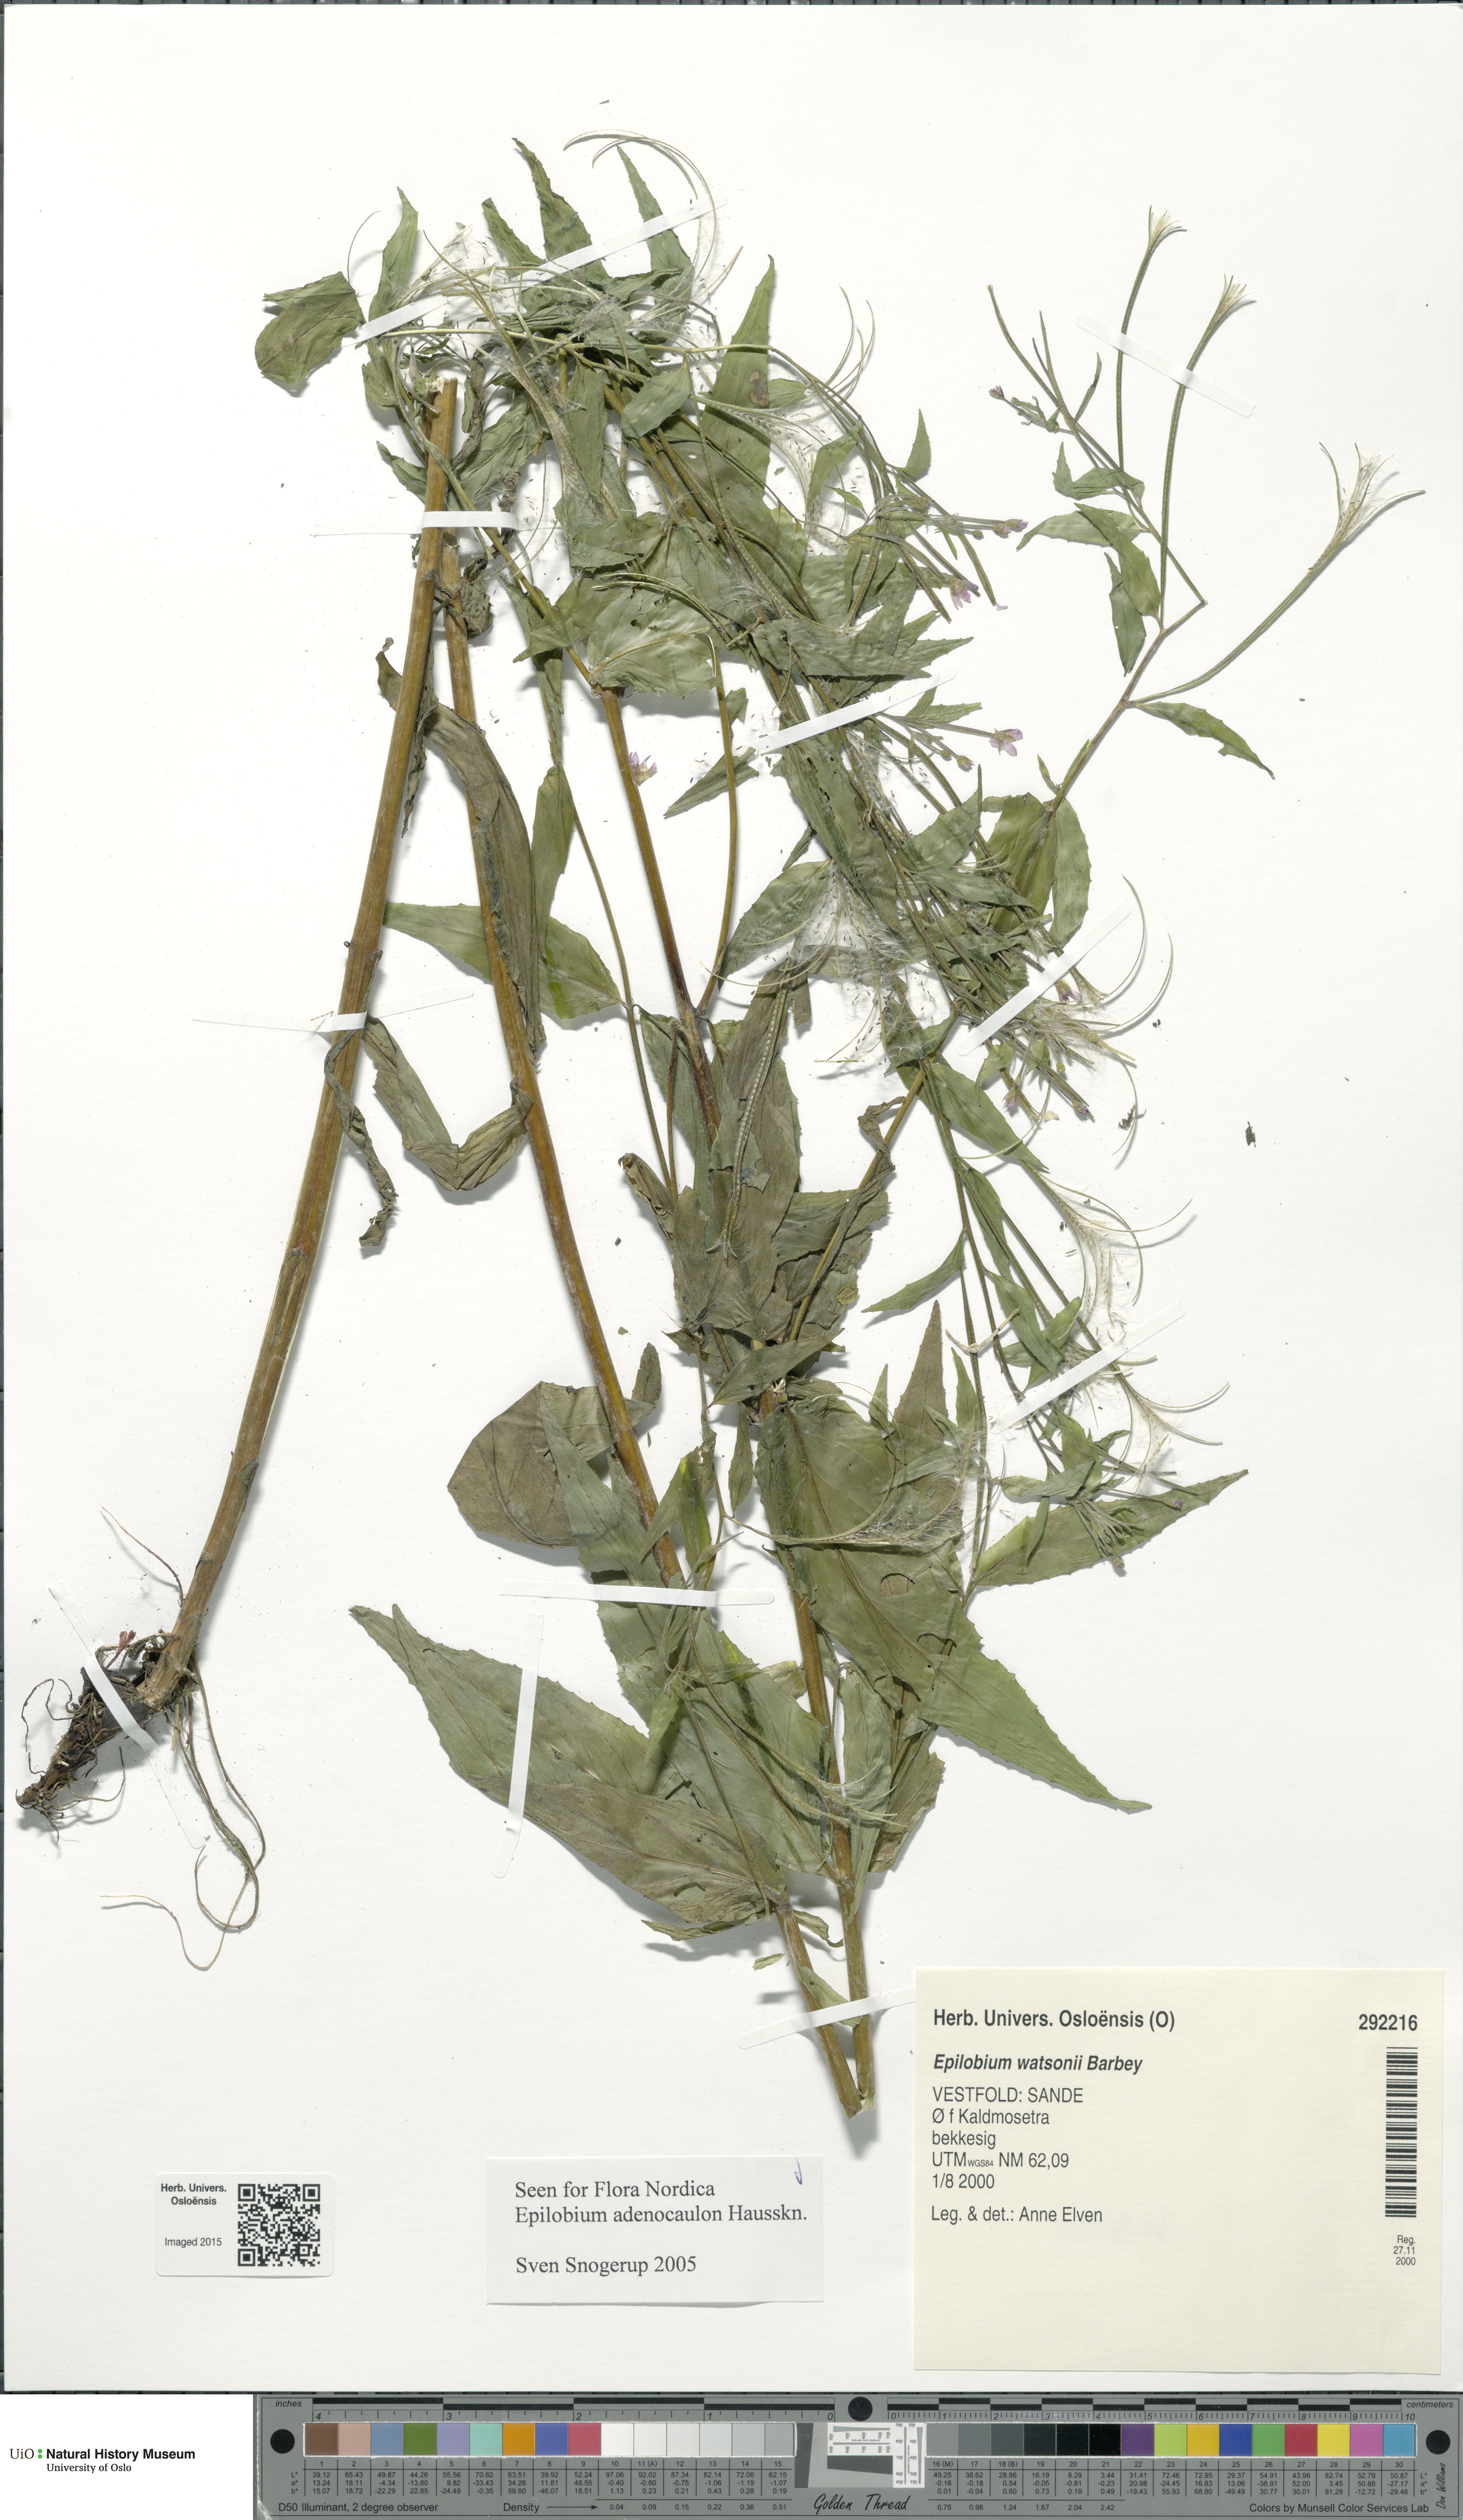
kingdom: Plantae
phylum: Tracheophyta
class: Magnoliopsida
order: Myrtales
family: Onagraceae
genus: Epilobium
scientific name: Epilobium ciliatum
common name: American willowherb
